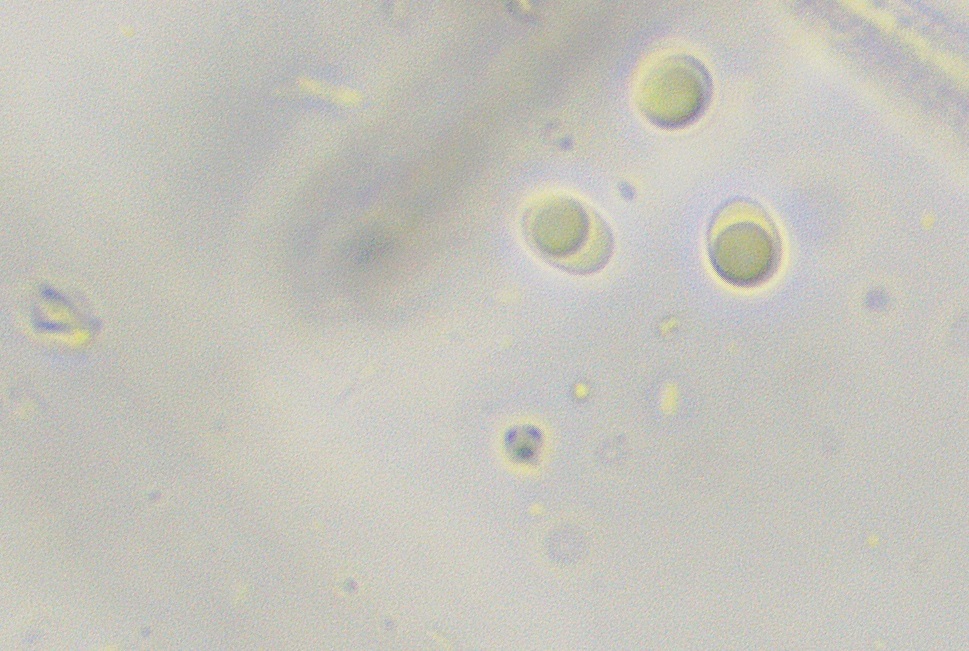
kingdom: Fungi
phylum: Basidiomycota
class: Agaricomycetes
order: Atheliales
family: Atheliaceae
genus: Amphinema
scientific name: Amphinema byssoides
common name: almindelig rodhinde
